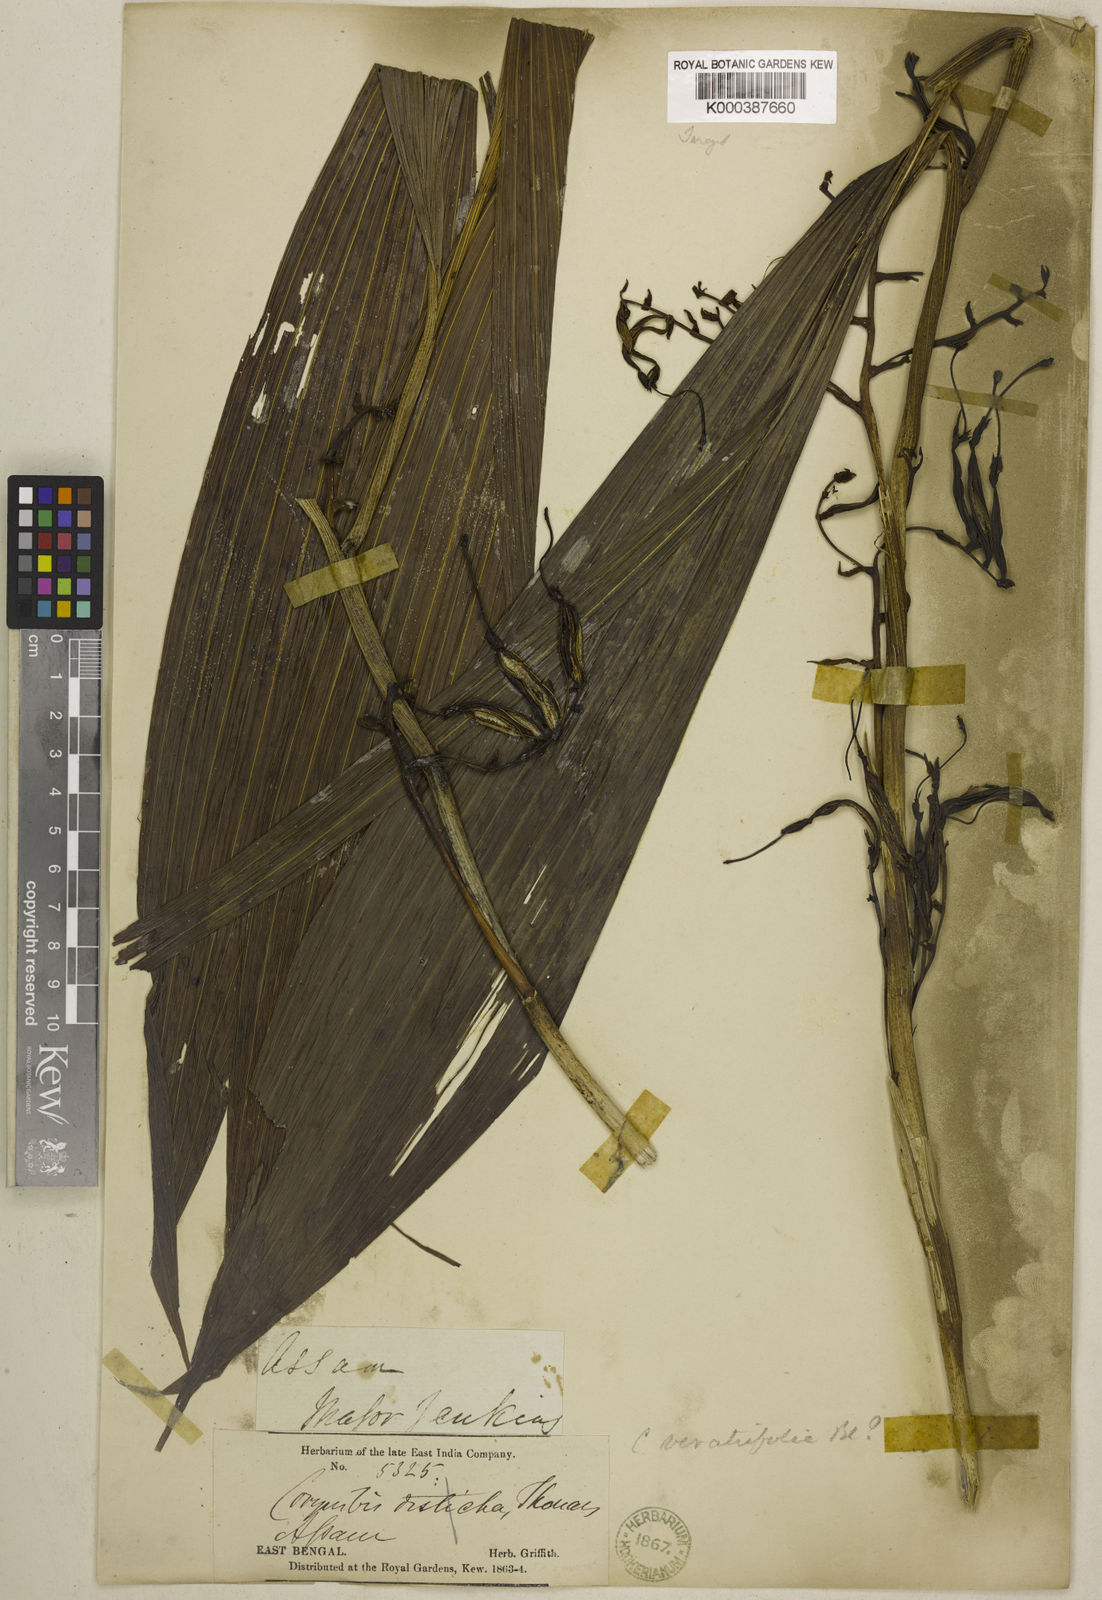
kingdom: Plantae
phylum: Tracheophyta
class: Liliopsida
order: Asparagales
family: Orchidaceae
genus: Corymborkis
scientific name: Corymborkis
